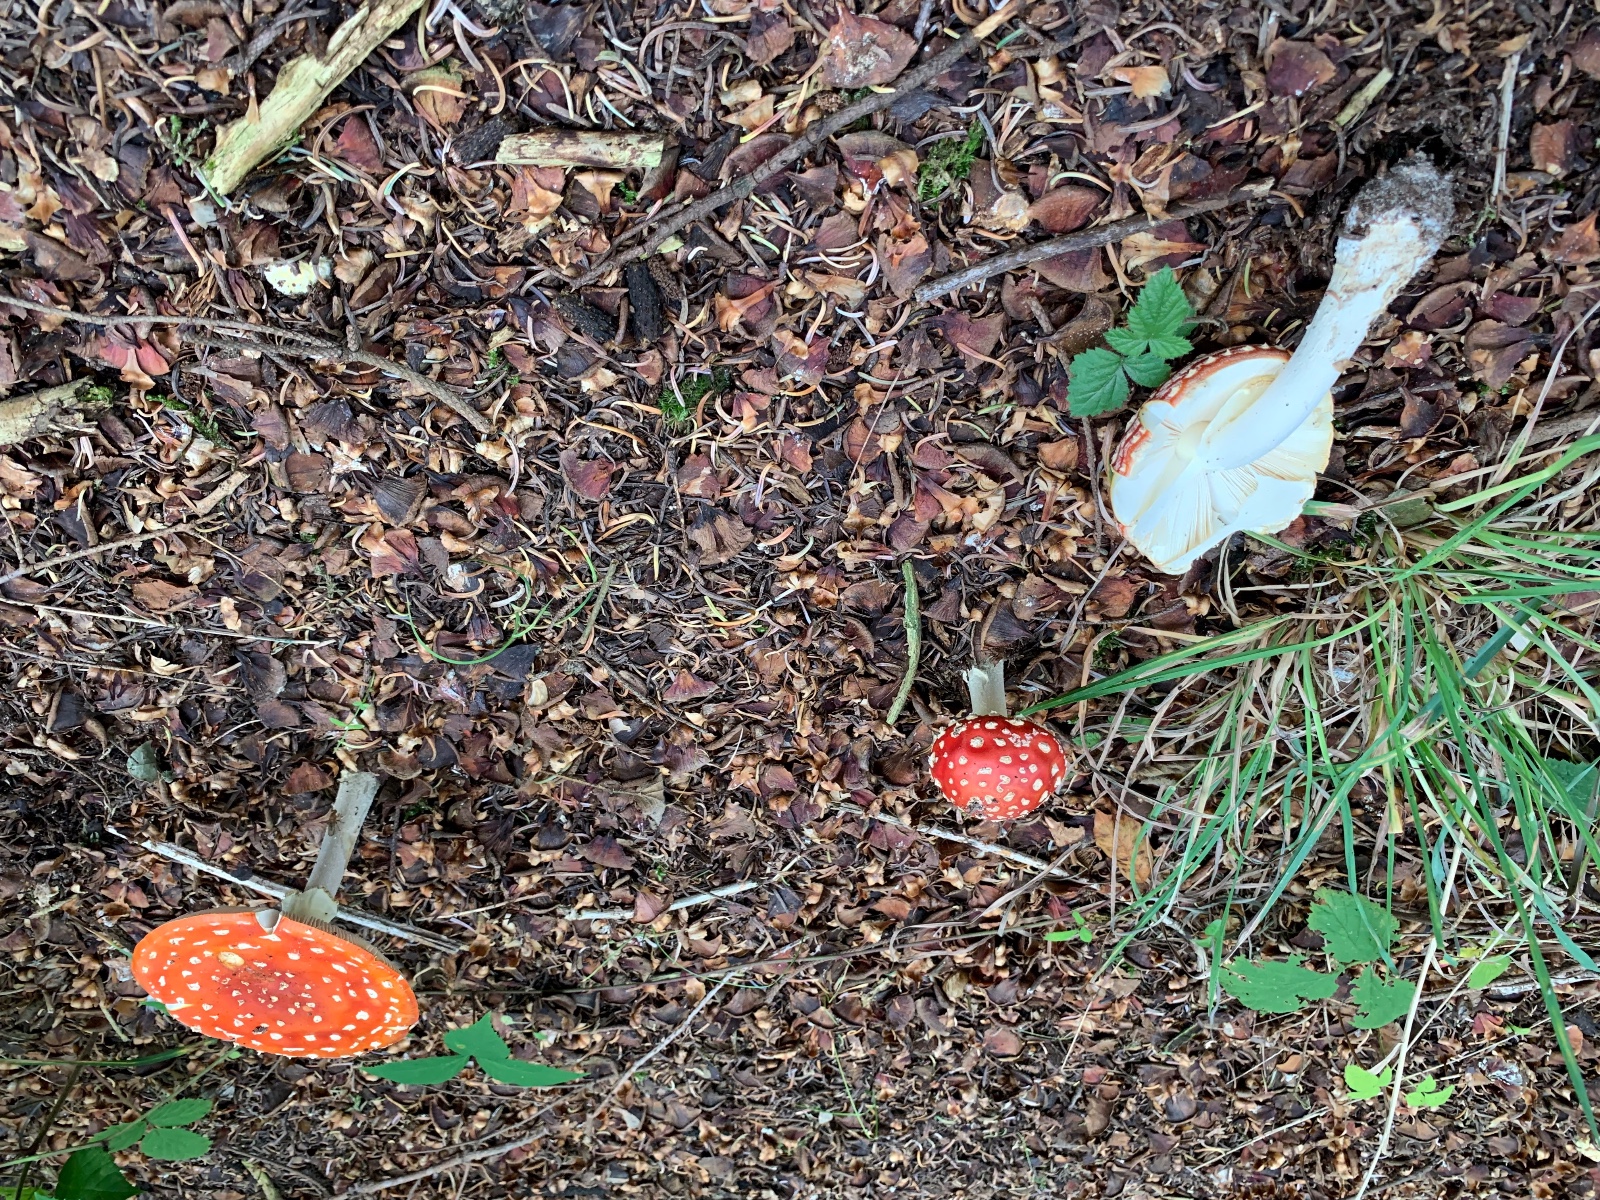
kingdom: Fungi
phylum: Basidiomycota
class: Agaricomycetes
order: Agaricales
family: Amanitaceae
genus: Amanita
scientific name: Amanita muscaria
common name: rød fluesvamp
